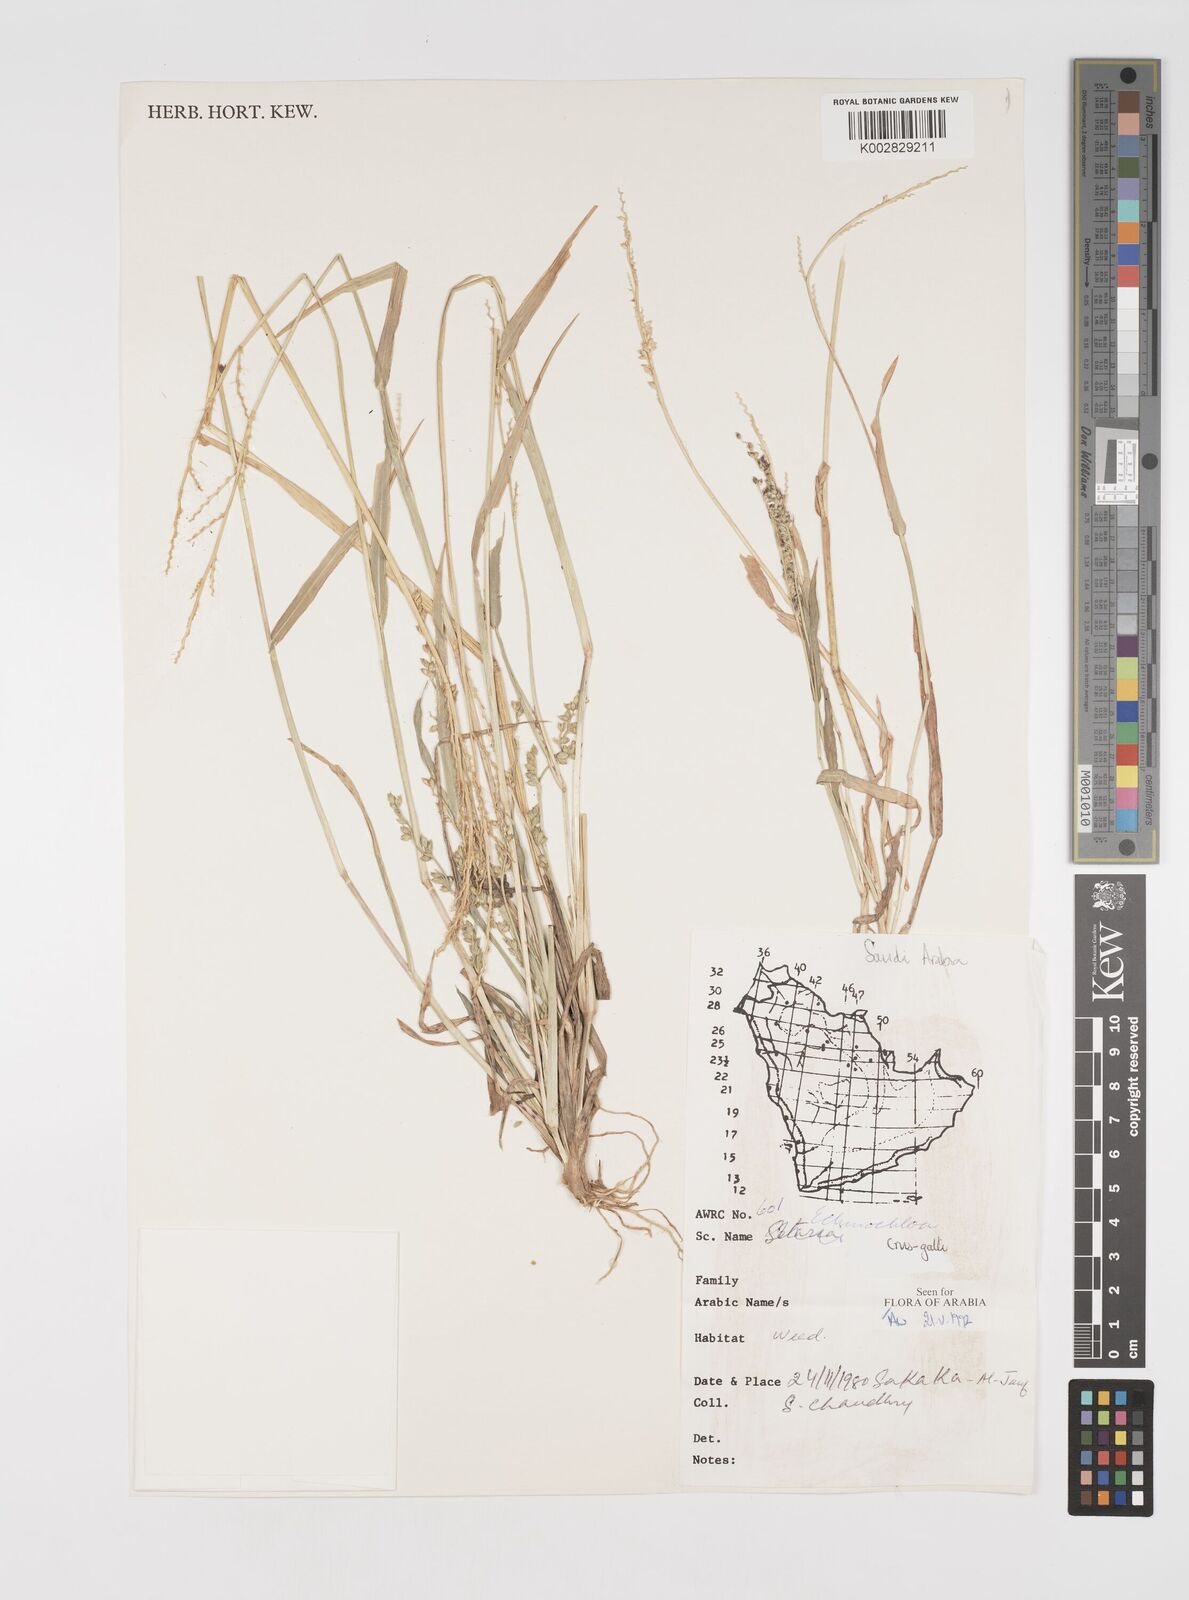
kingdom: Plantae
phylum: Tracheophyta
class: Liliopsida
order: Poales
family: Poaceae
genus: Echinochloa
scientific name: Echinochloa crus-galli
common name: Cockspur
